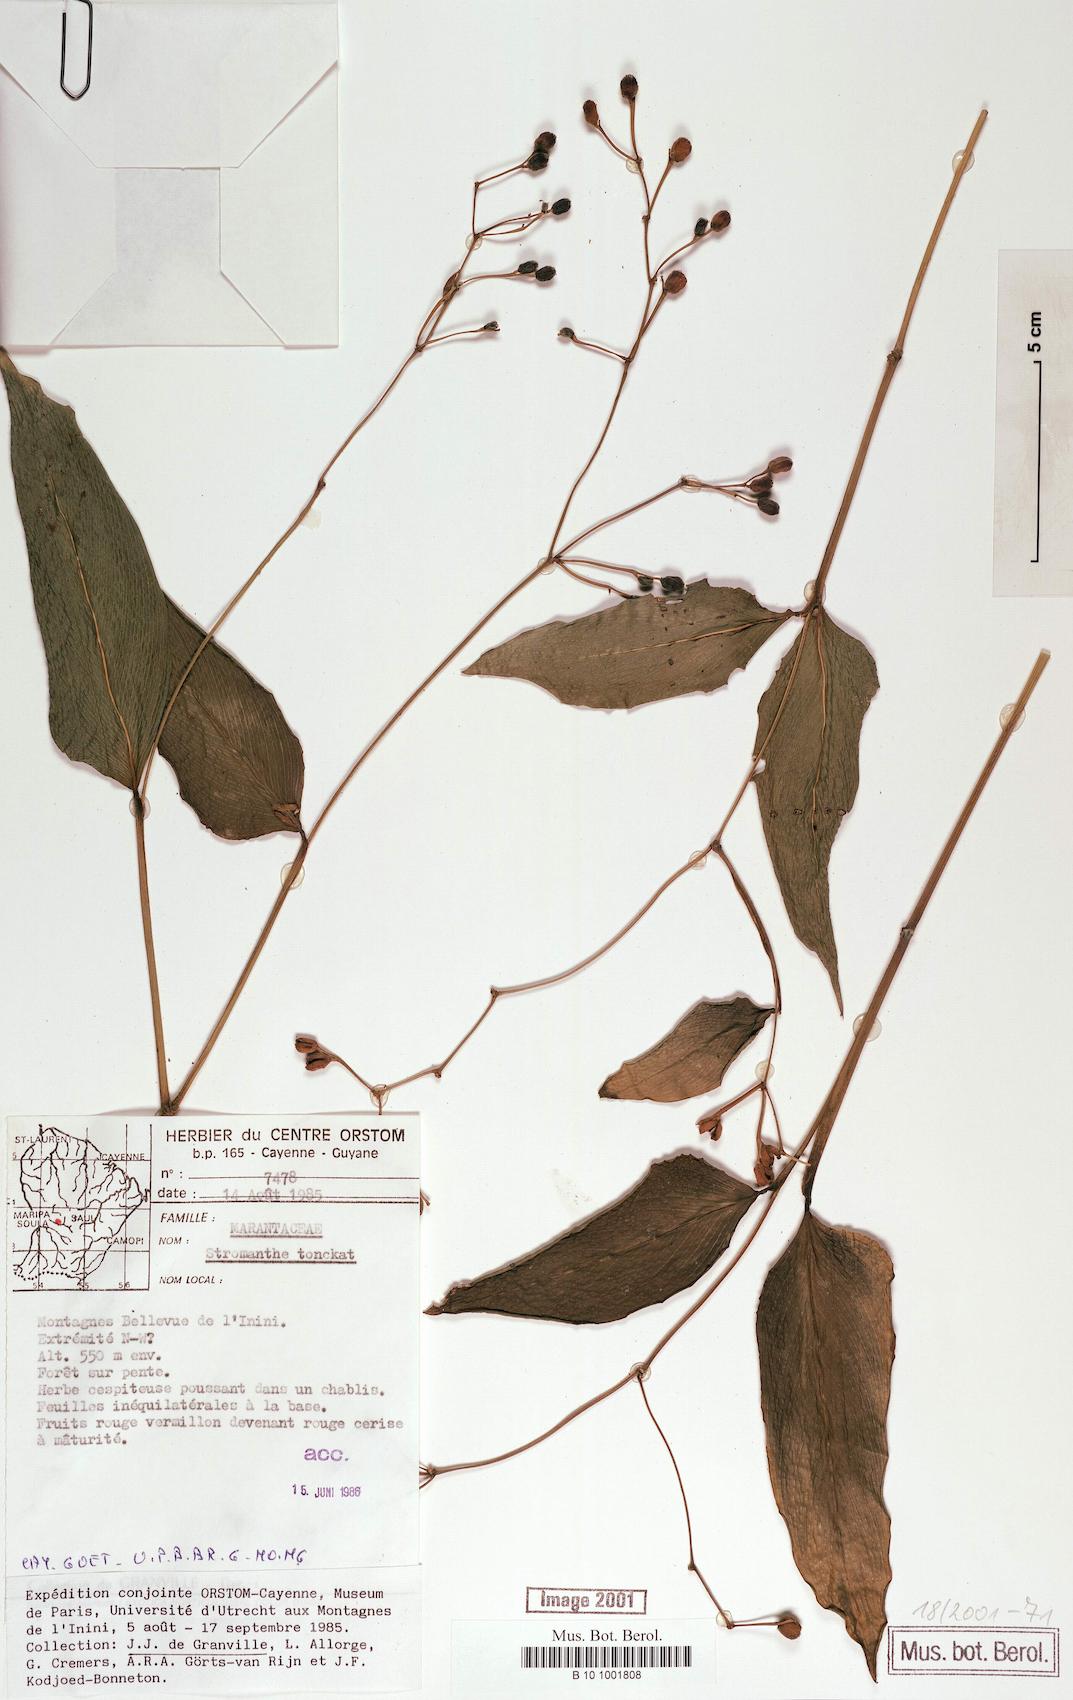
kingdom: Plantae
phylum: Tracheophyta
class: Liliopsida
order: Zingiberales
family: Marantaceae
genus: Stromanthe
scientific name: Stromanthe tonckat
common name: Stromanthe
